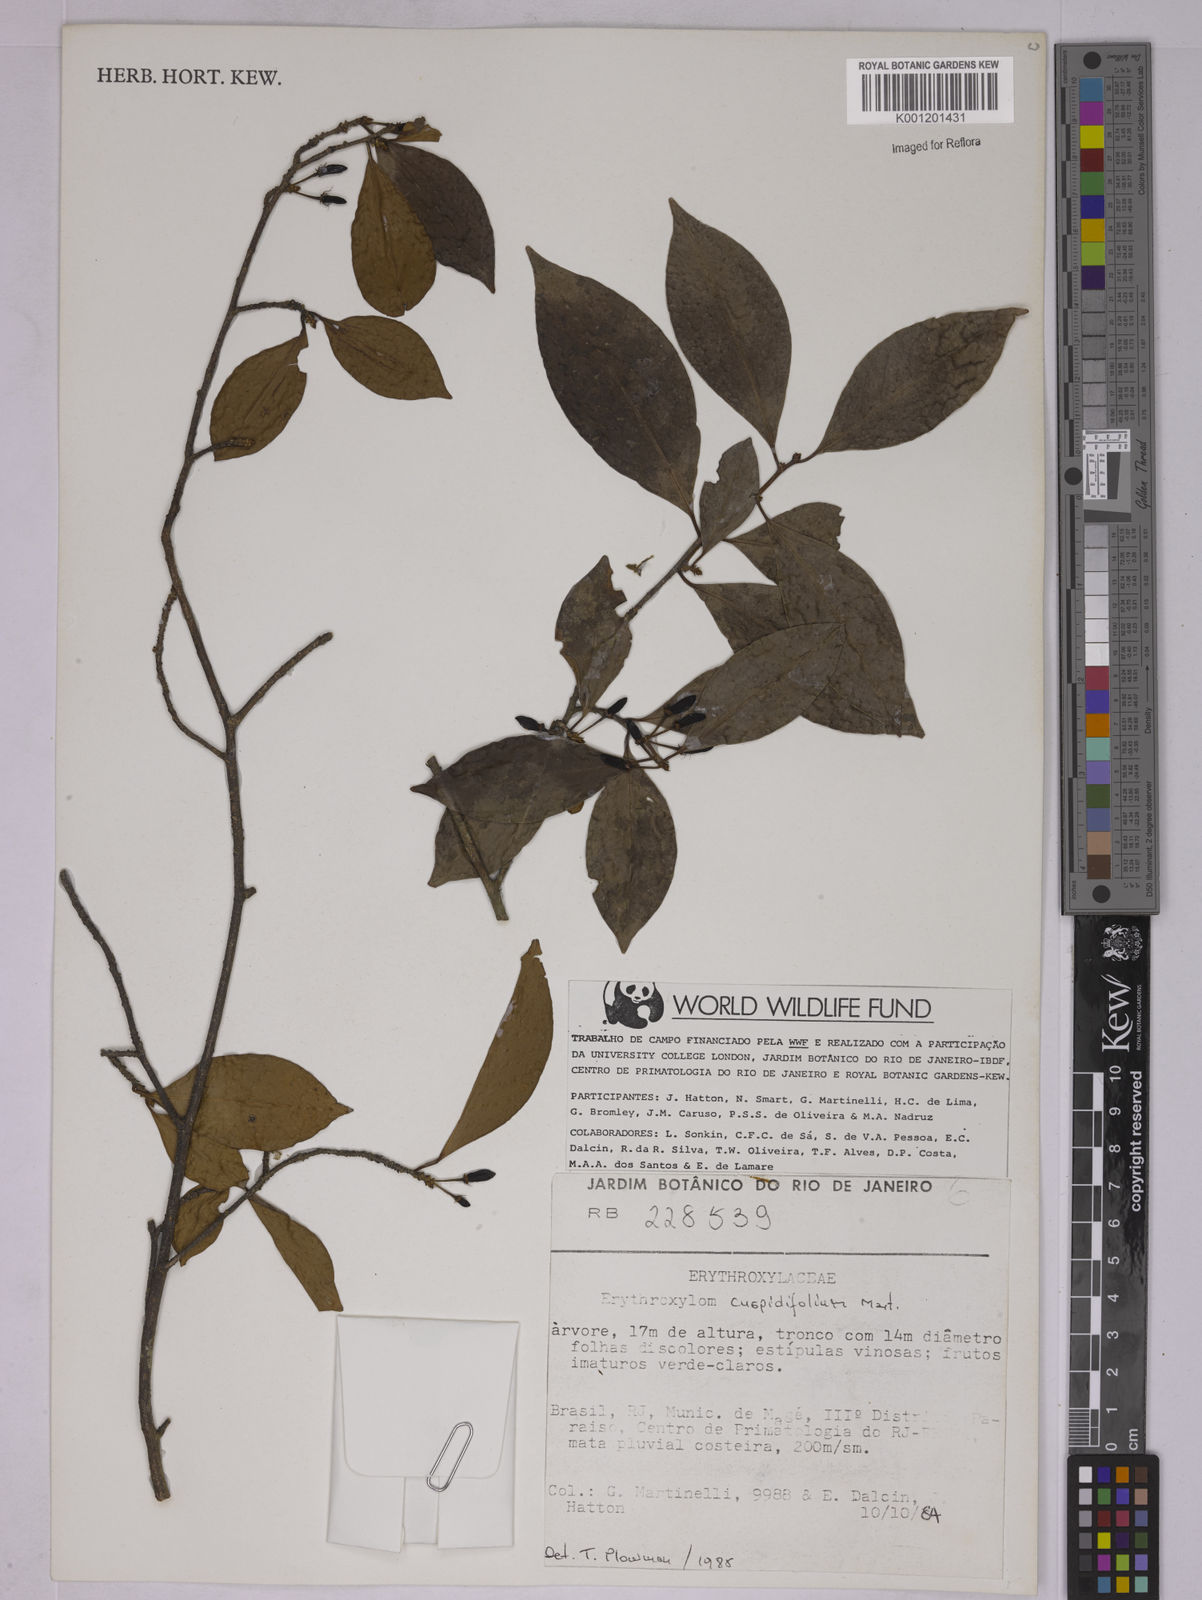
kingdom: Plantae
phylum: Tracheophyta
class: Magnoliopsida
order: Malpighiales
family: Erythroxylaceae
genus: Erythroxylum
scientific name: Erythroxylum cuspidifolium
